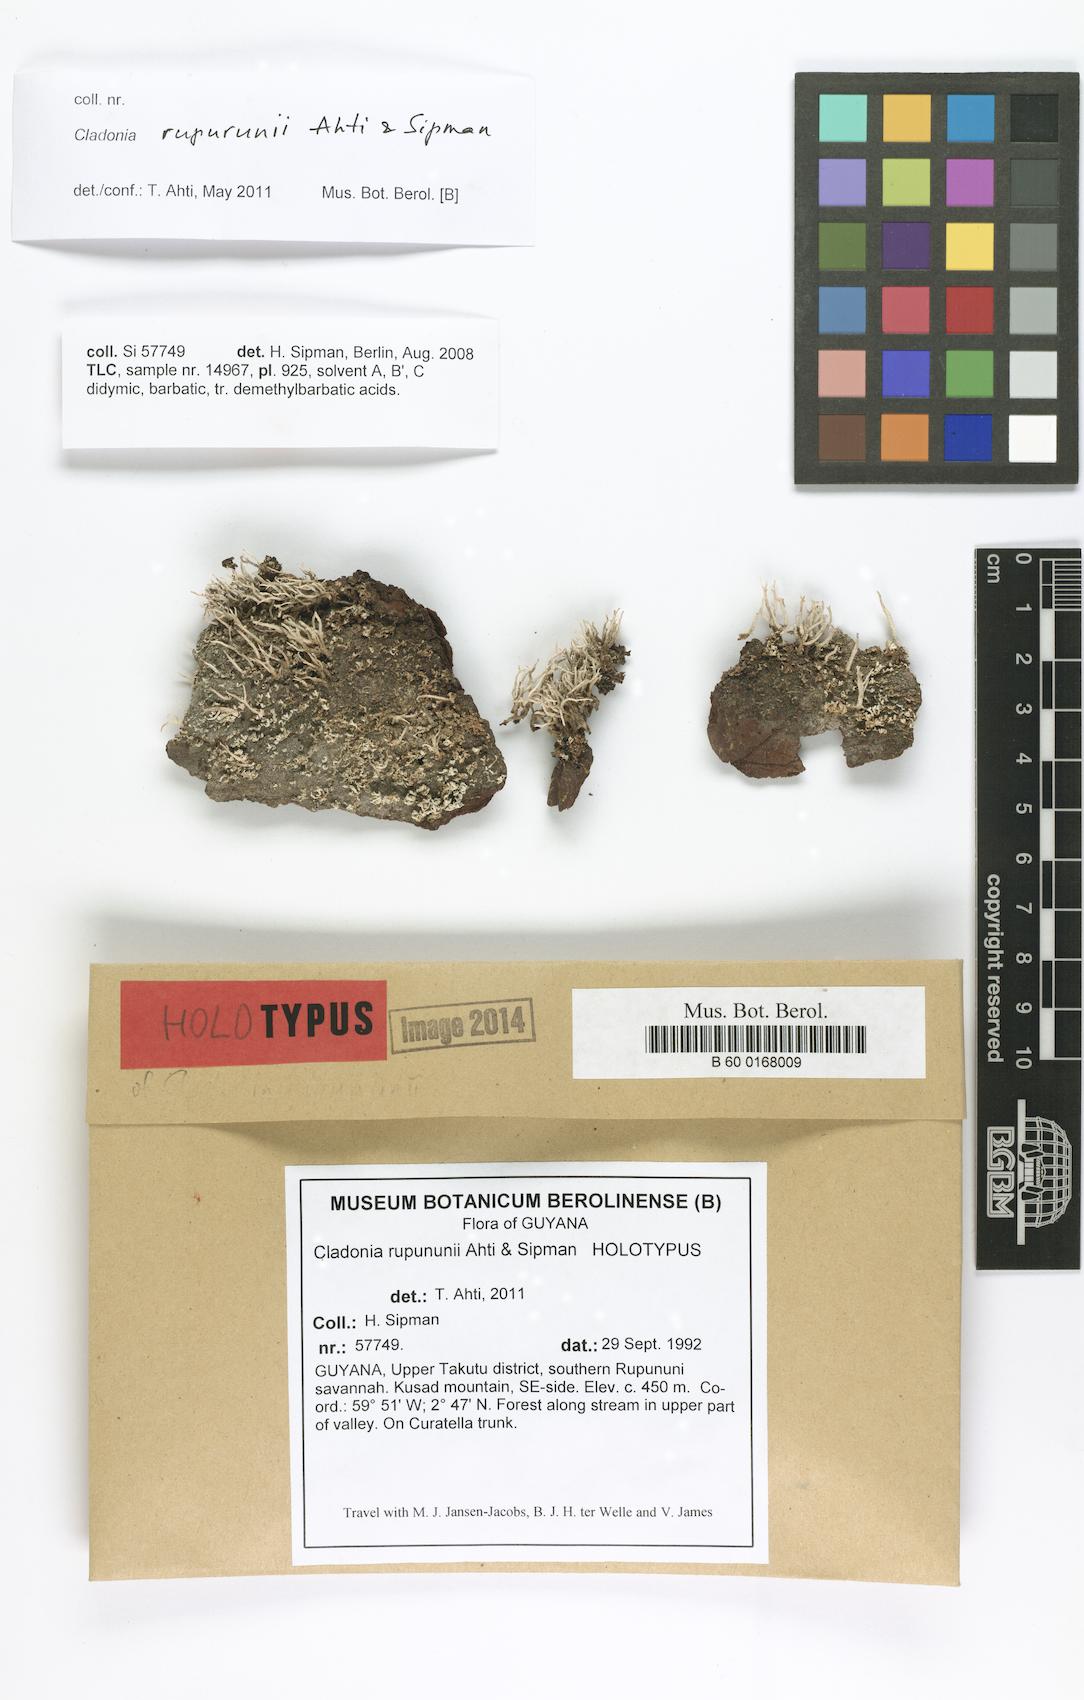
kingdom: Fungi
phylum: Ascomycota
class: Lecanoromycetes
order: Lecanorales
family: Cladoniaceae
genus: Cladonia
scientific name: Cladonia rupununii
